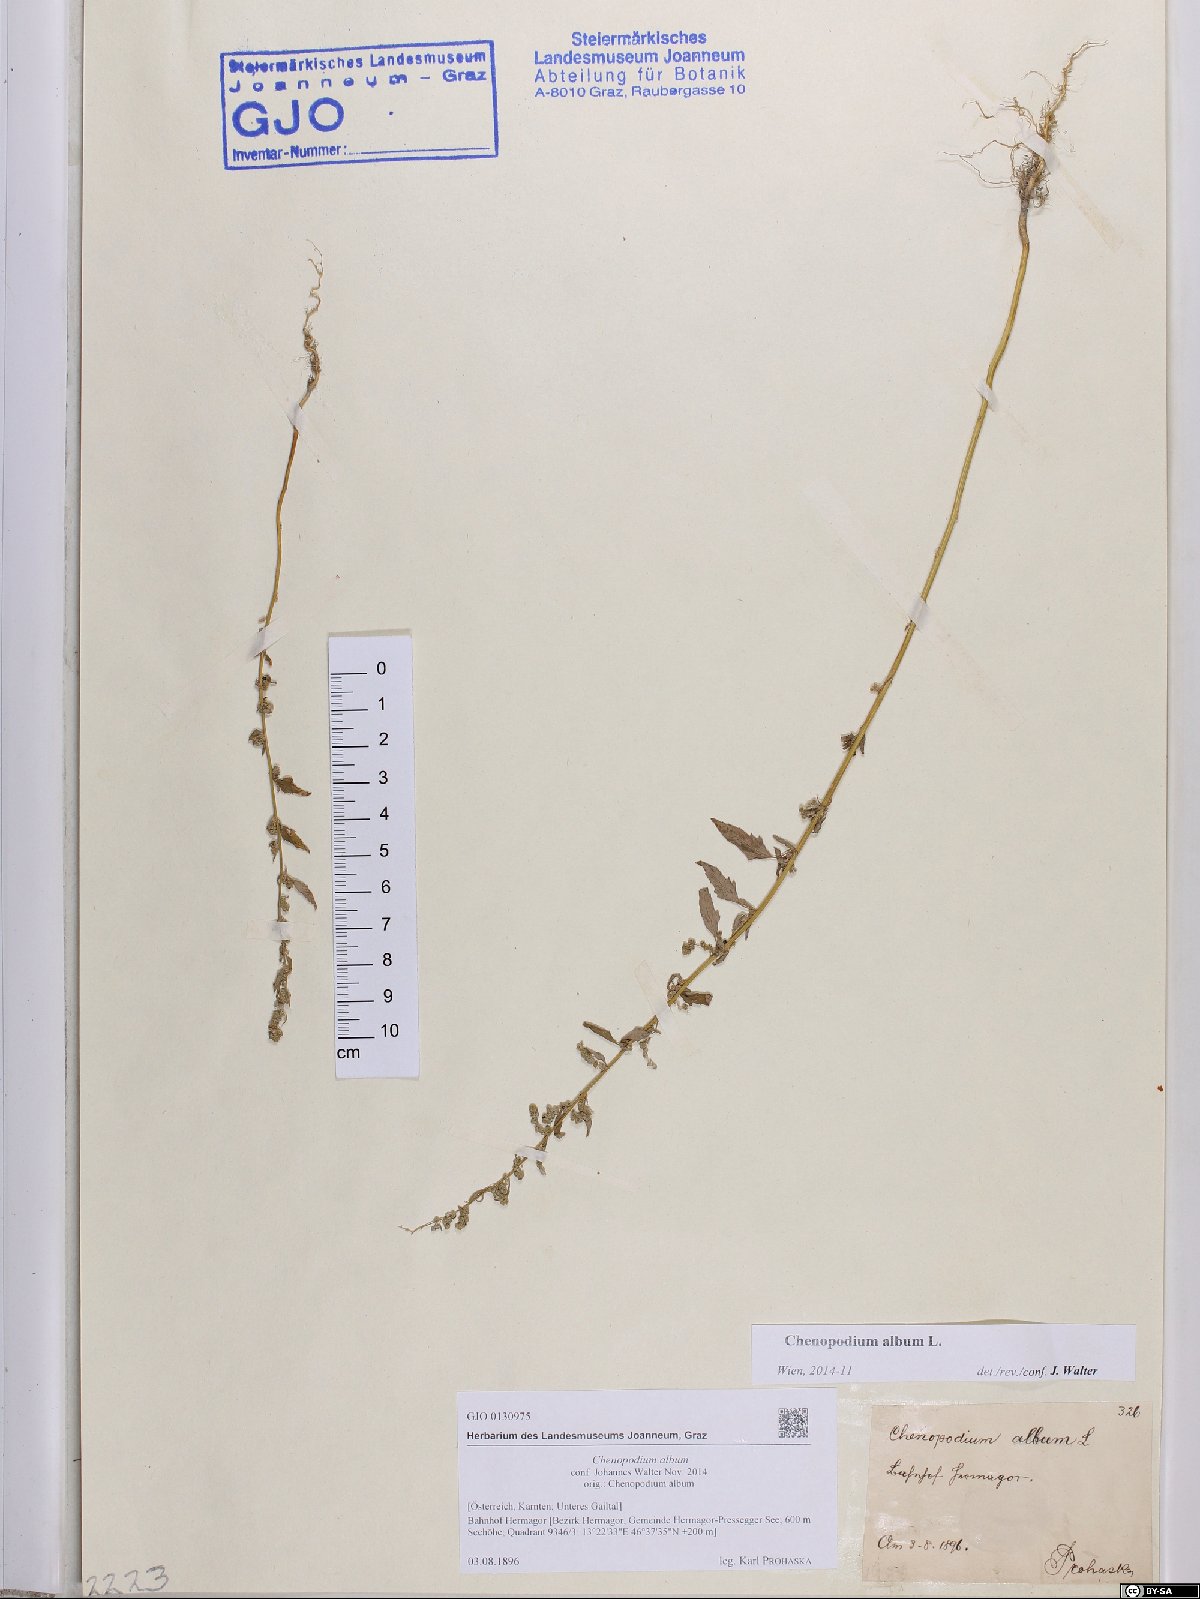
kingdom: Plantae
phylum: Tracheophyta
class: Magnoliopsida
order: Caryophyllales
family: Amaranthaceae
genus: Chenopodium
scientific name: Chenopodium album
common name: Fat-hen
